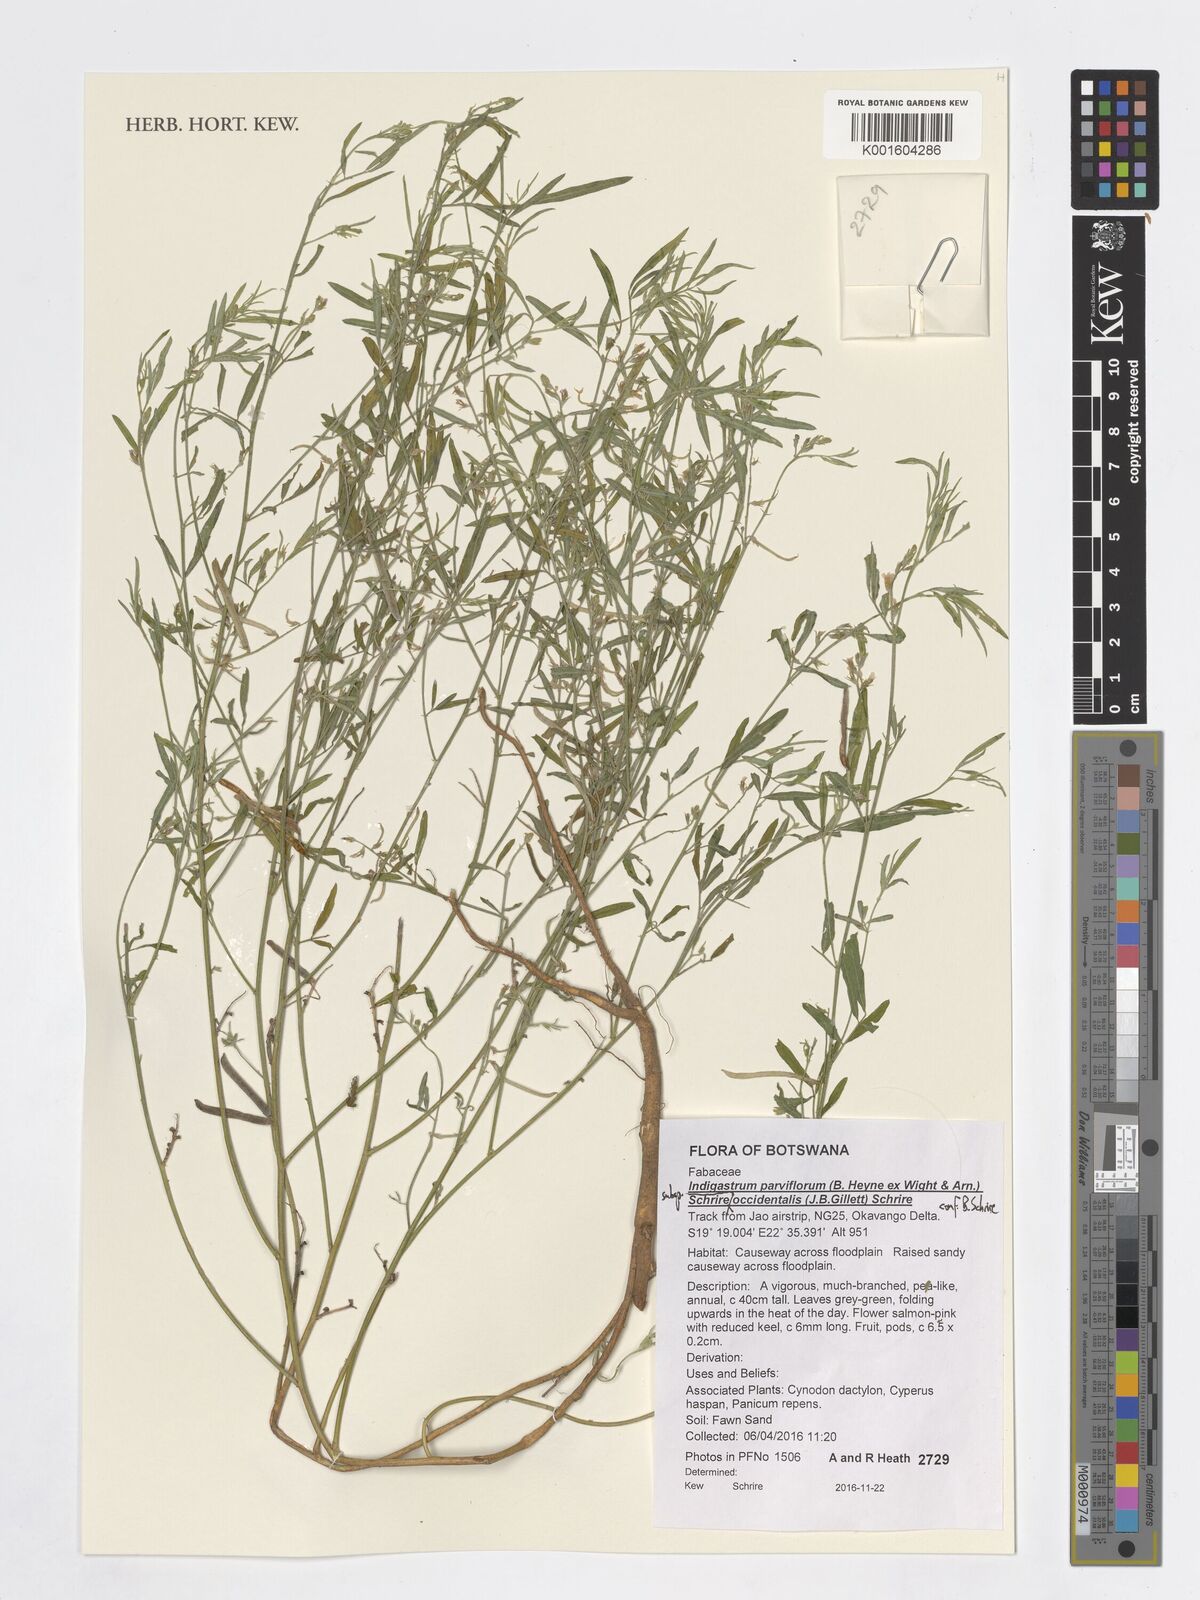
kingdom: Plantae
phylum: Tracheophyta
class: Magnoliopsida
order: Fabales
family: Fabaceae
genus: Indigastrum
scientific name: Indigastrum parviflorum
